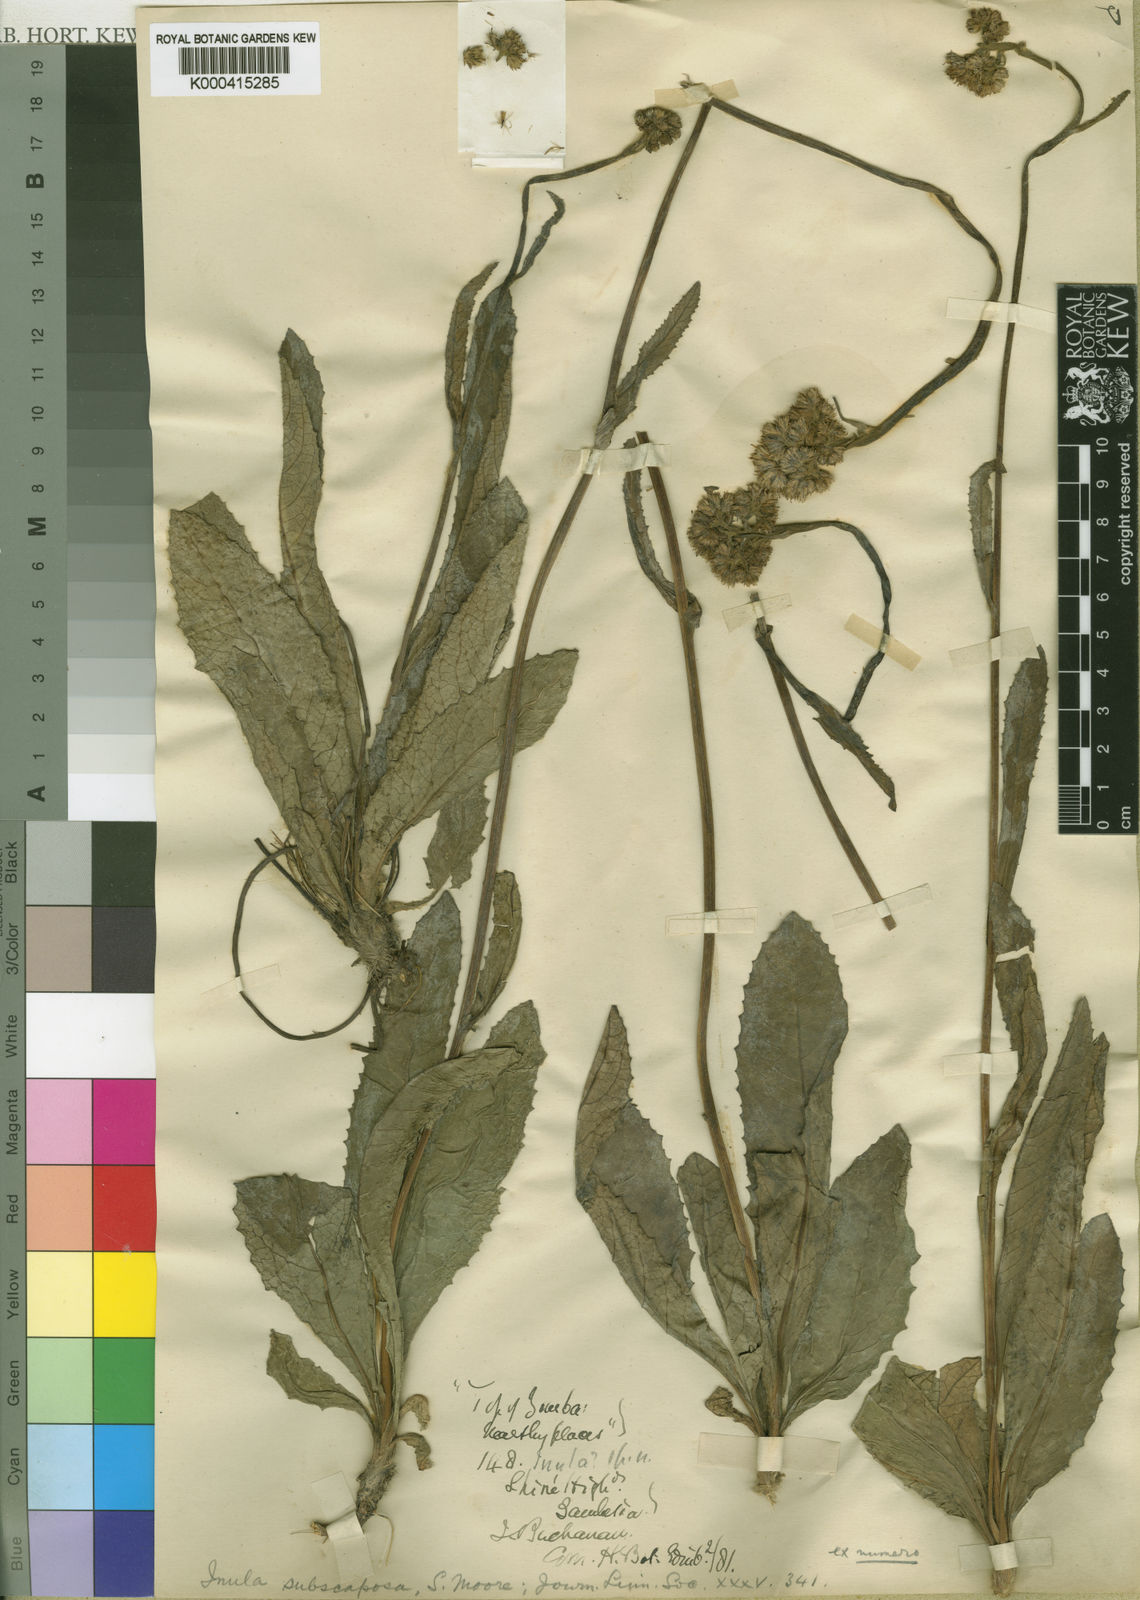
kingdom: Plantae
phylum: Tracheophyta
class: Magnoliopsida
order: Asterales
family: Asteraceae
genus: Monactinocephalus
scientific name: Monactinocephalus paniculatus
